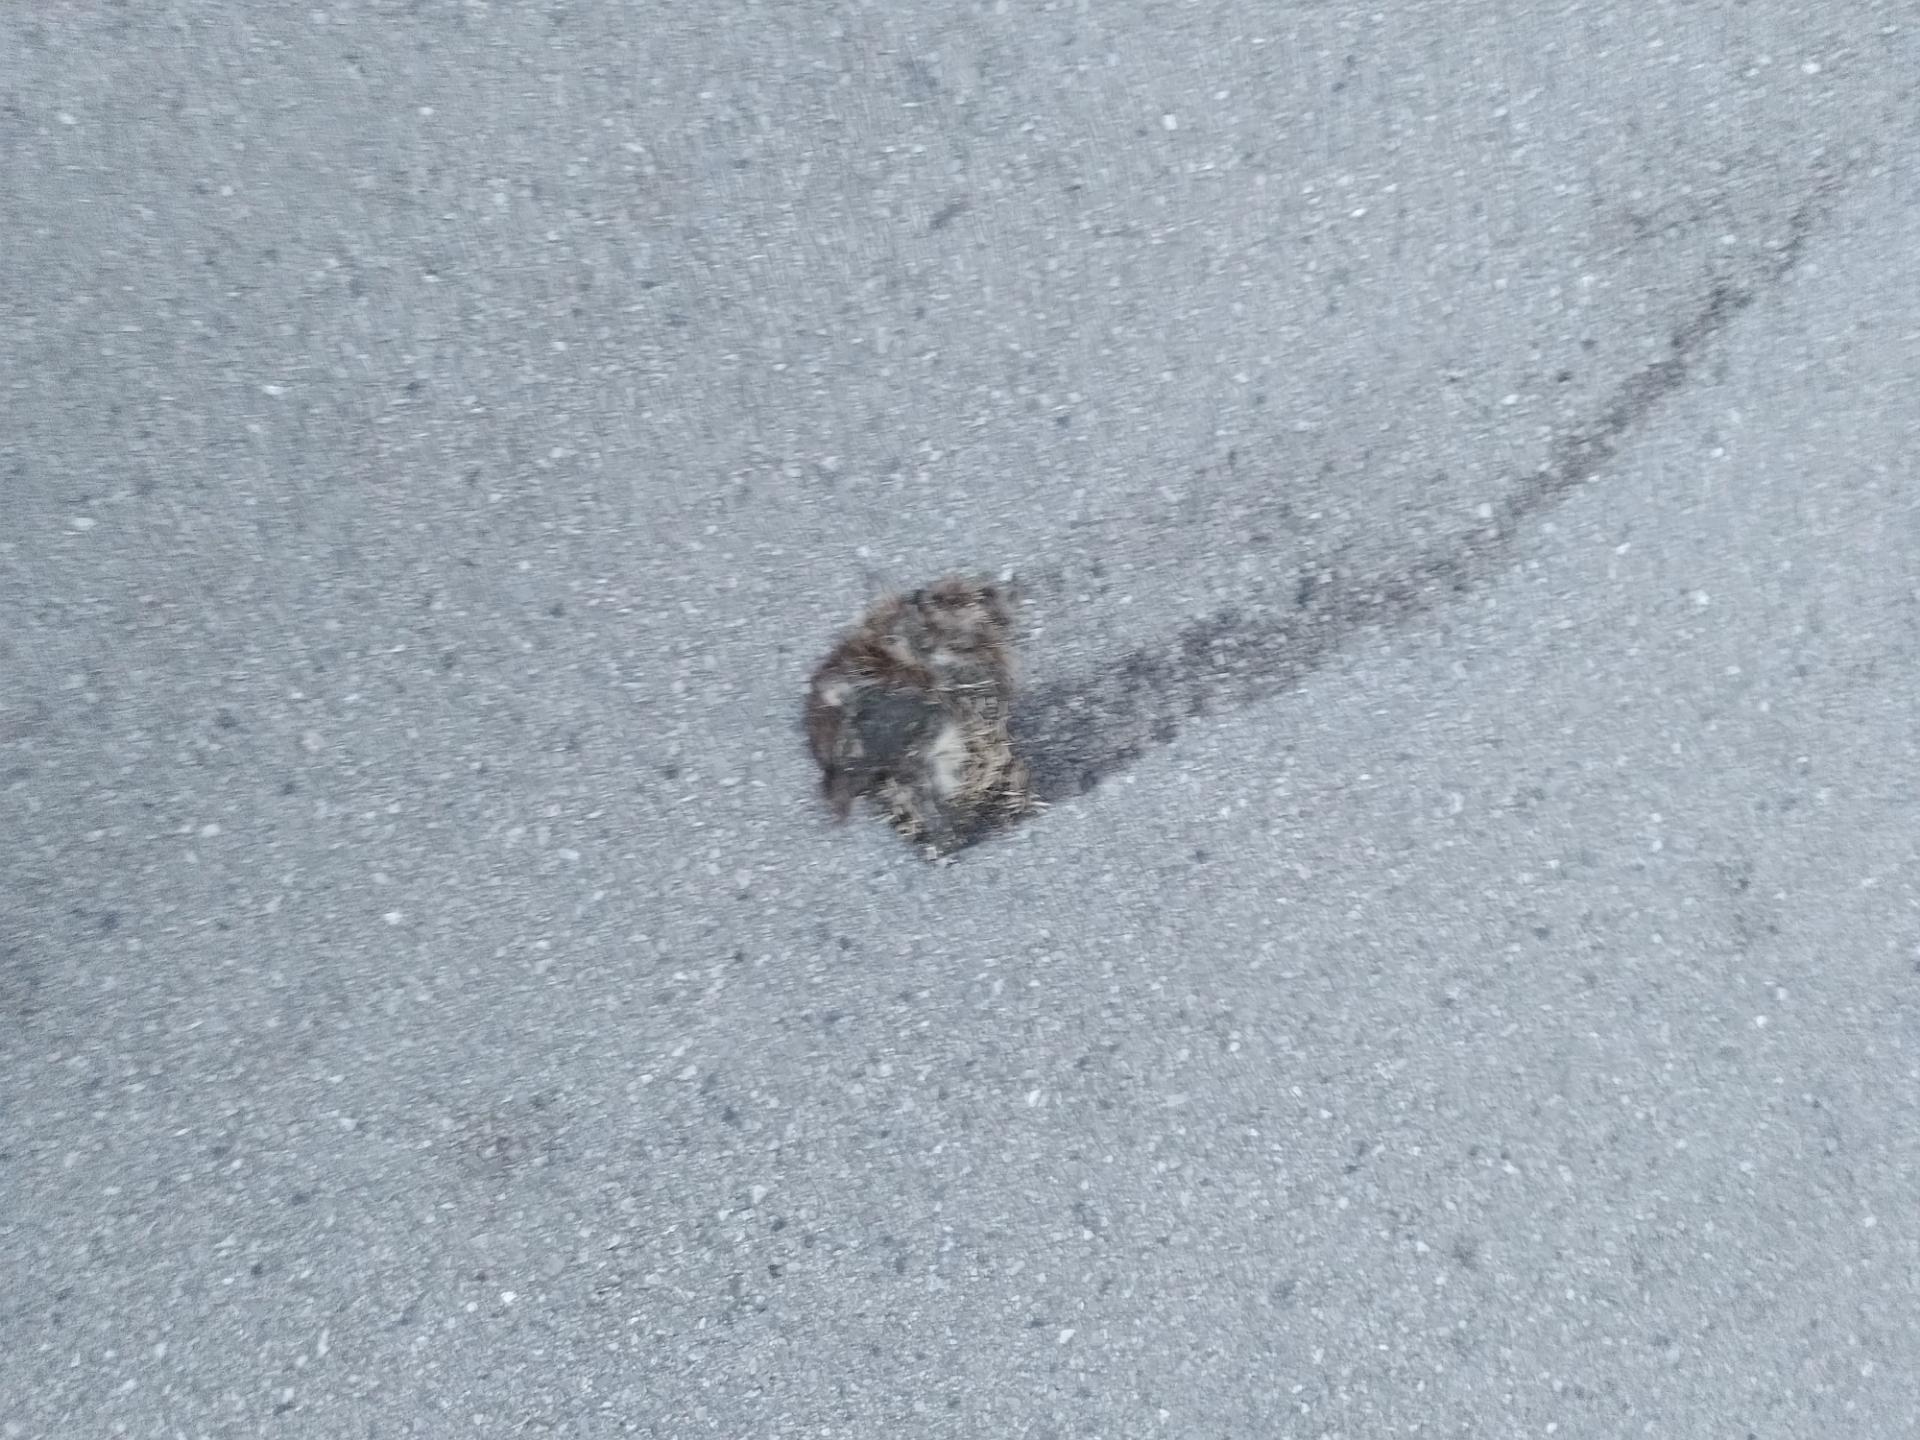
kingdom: Animalia
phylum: Chordata
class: Mammalia
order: Erinaceomorpha
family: Erinaceidae
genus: Erinaceus
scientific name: Erinaceus
